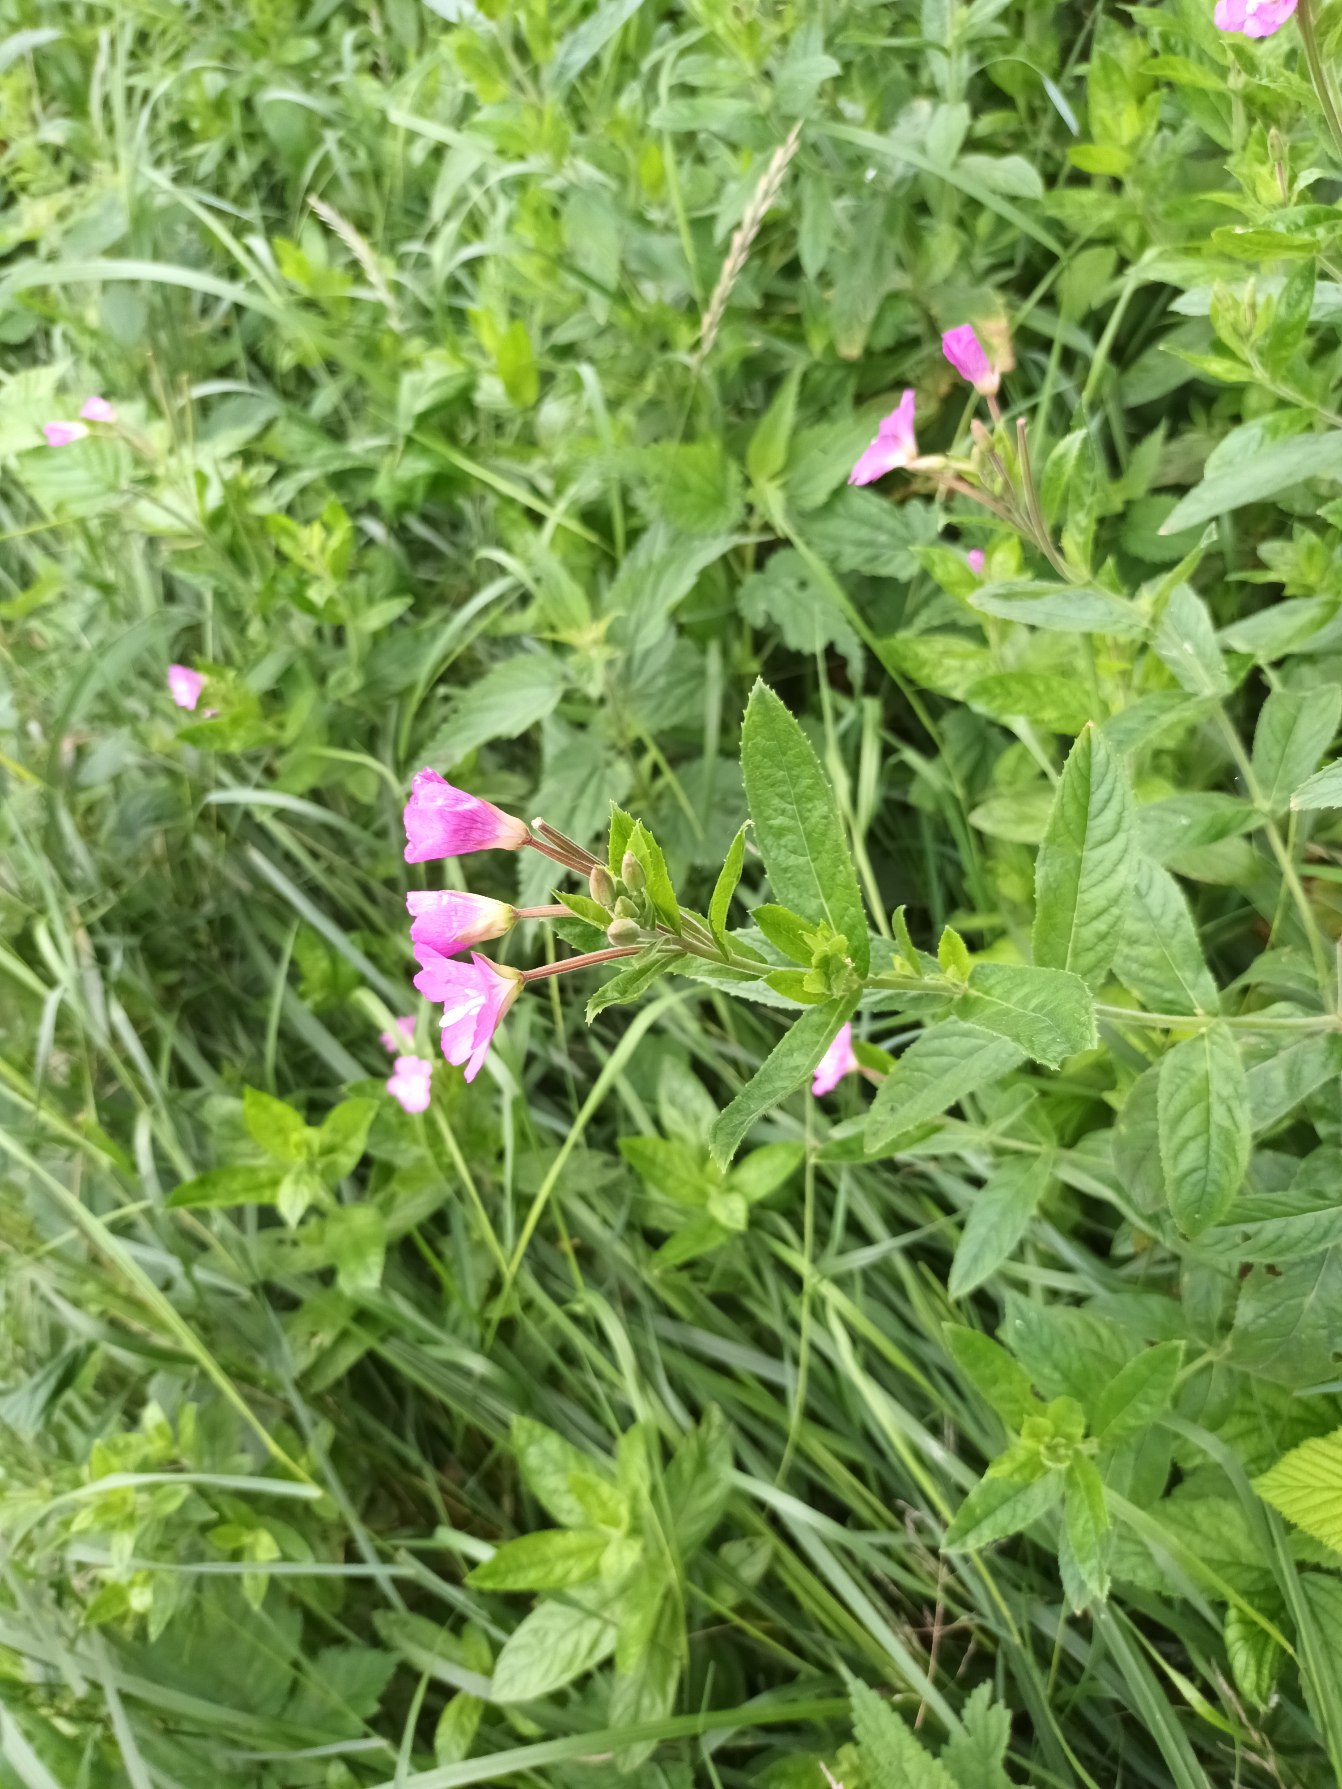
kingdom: Plantae
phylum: Tracheophyta
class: Magnoliopsida
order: Myrtales
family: Onagraceae
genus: Epilobium
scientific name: Epilobium hirsutum
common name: Lådden dueurt
